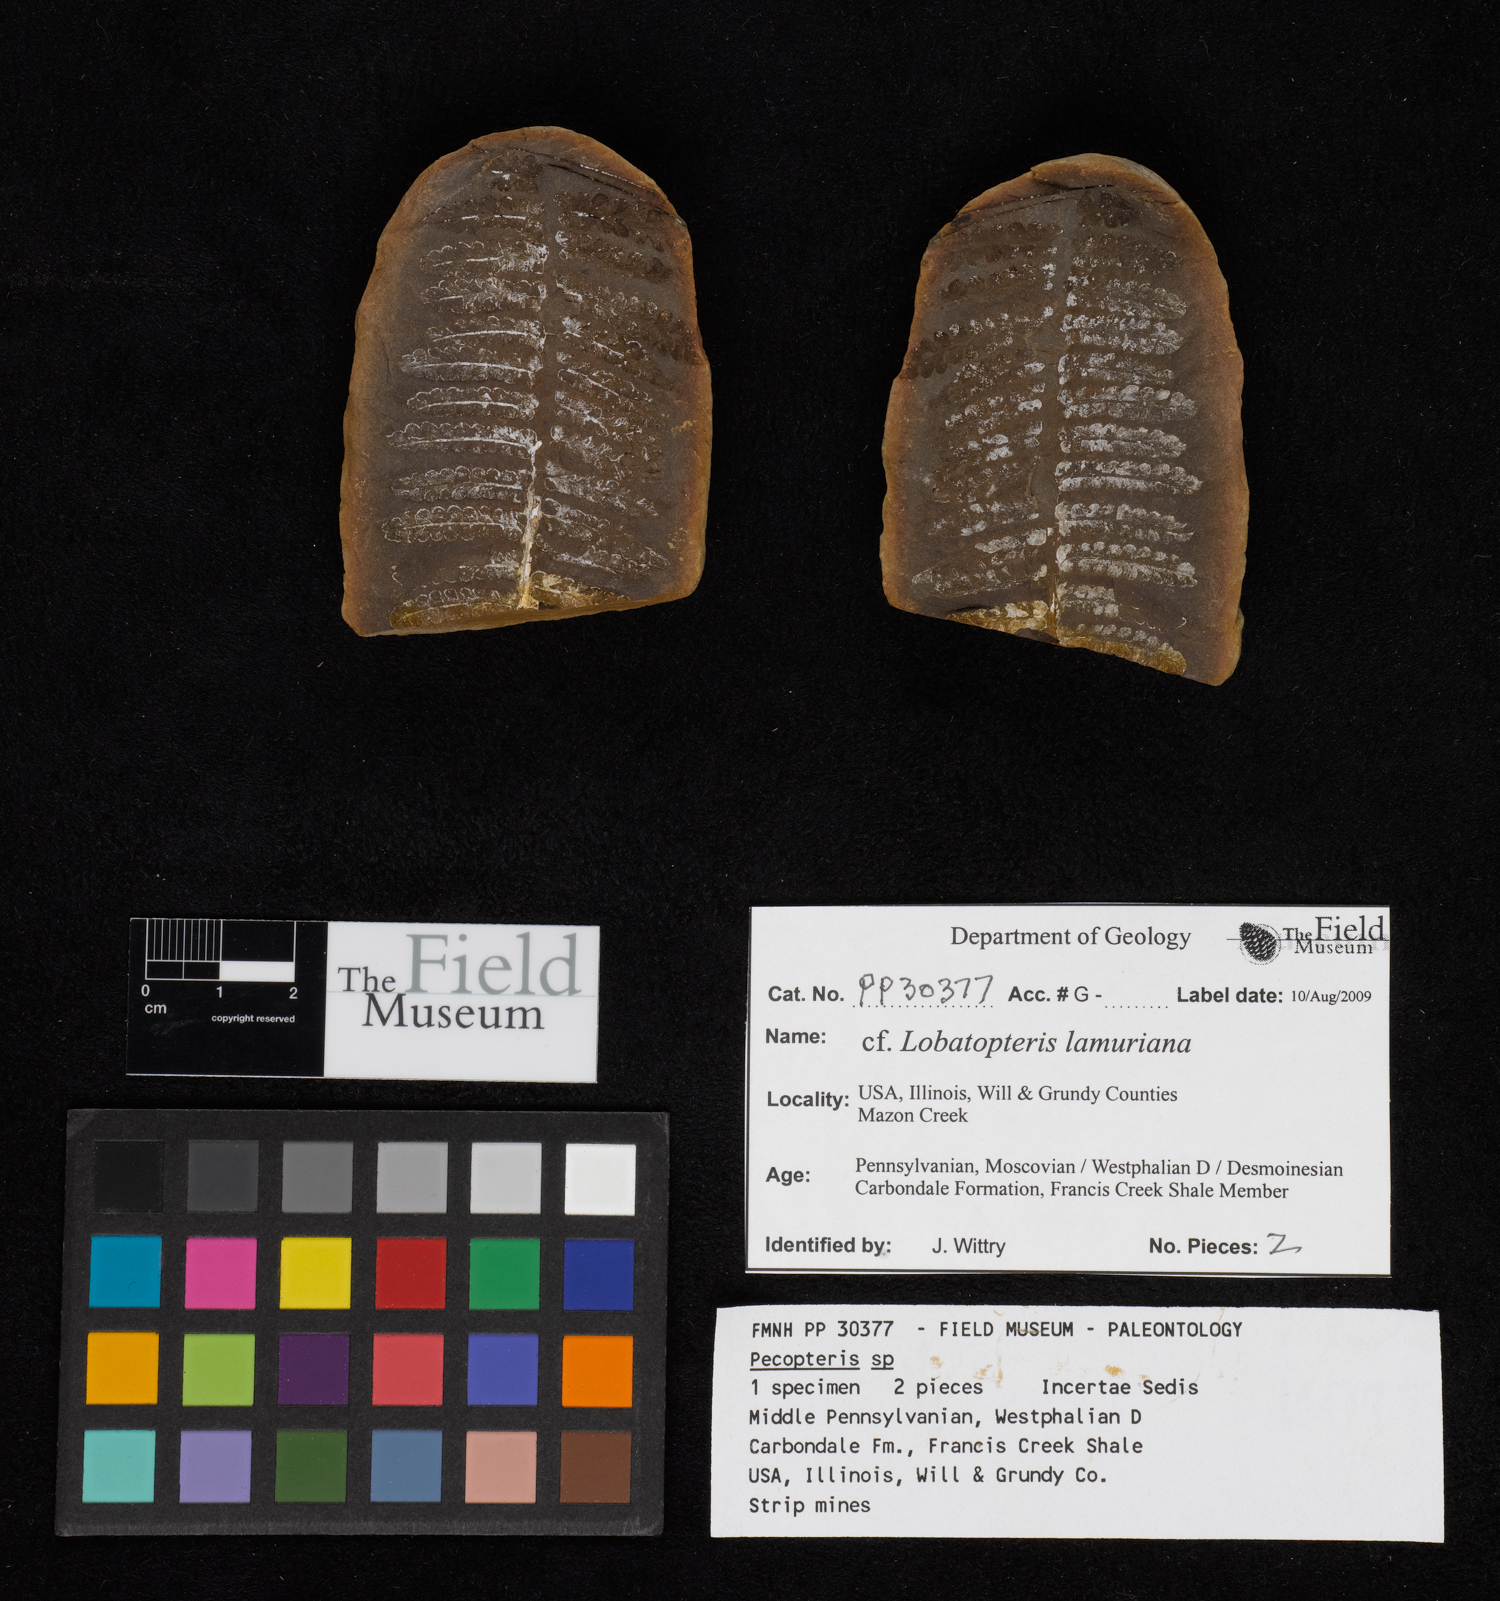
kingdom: Plantae
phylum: Tracheophyta
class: Polypodiopsida
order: Marattiales
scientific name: Marattiales
